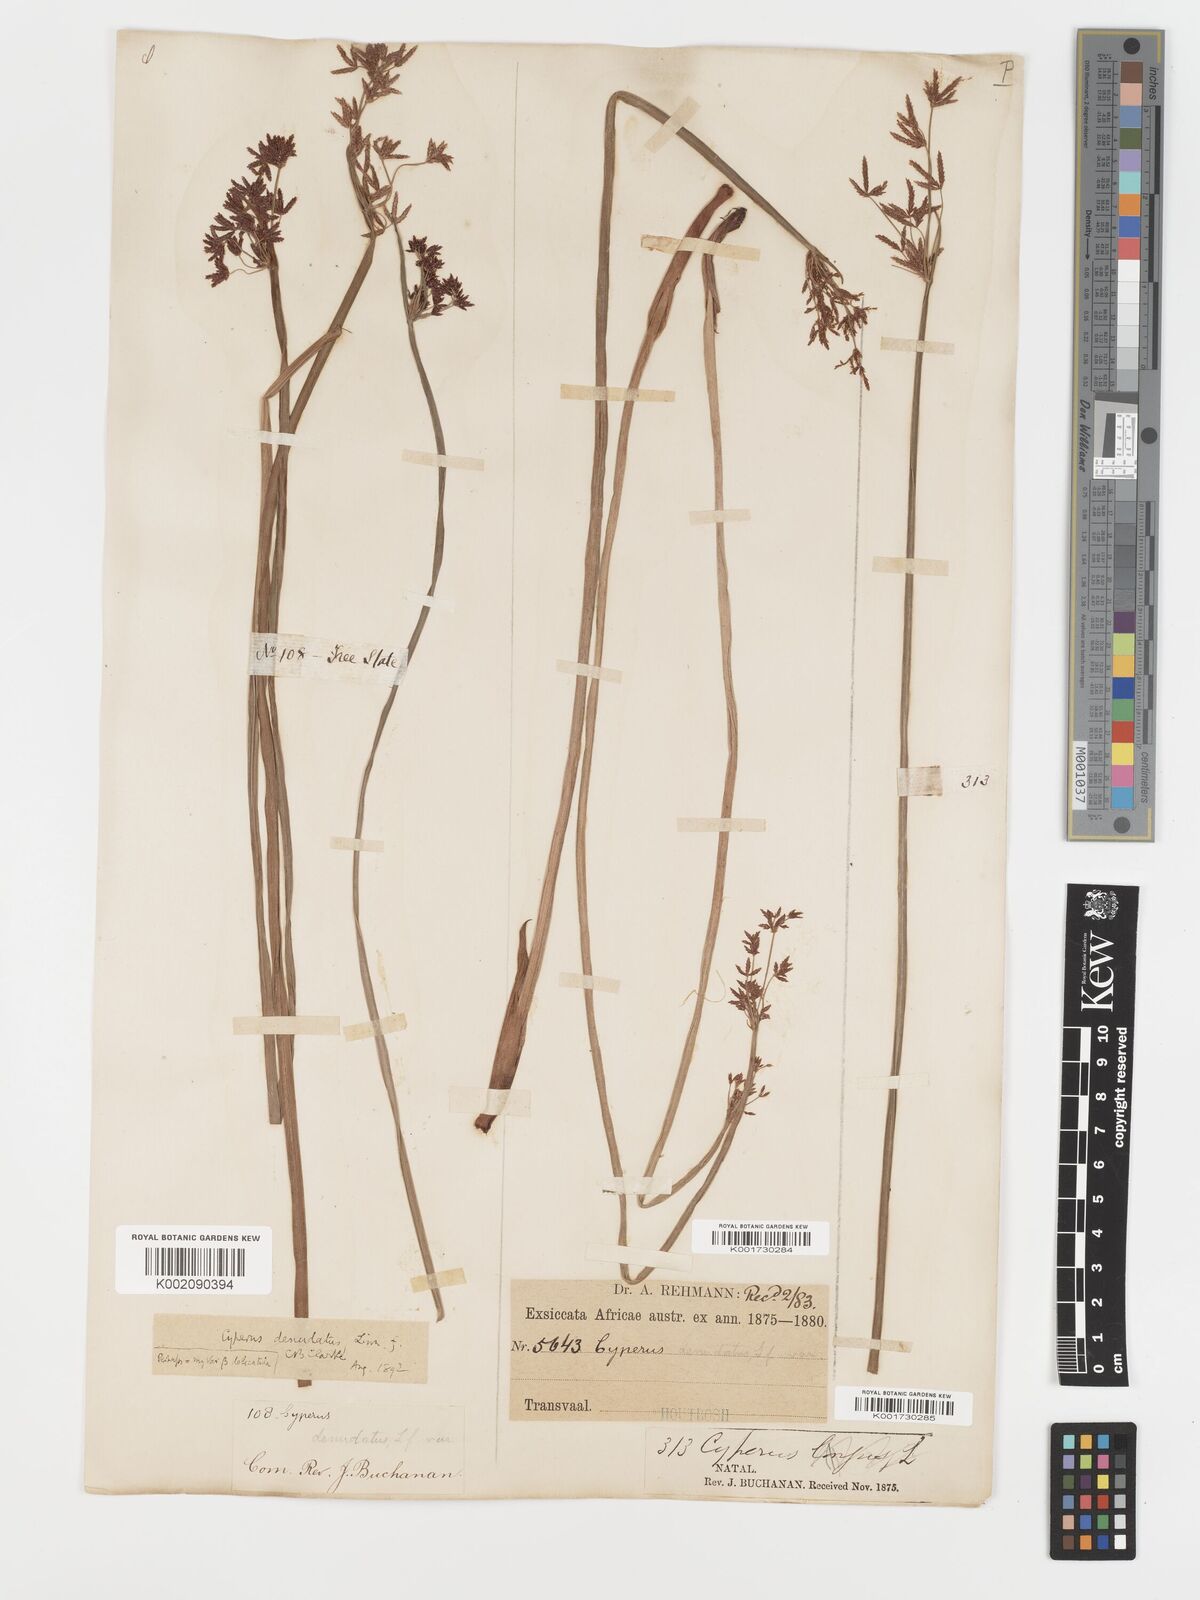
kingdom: Plantae
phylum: Tracheophyta
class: Liliopsida
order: Poales
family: Cyperaceae
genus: Cyperus
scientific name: Cyperus platycaulis
